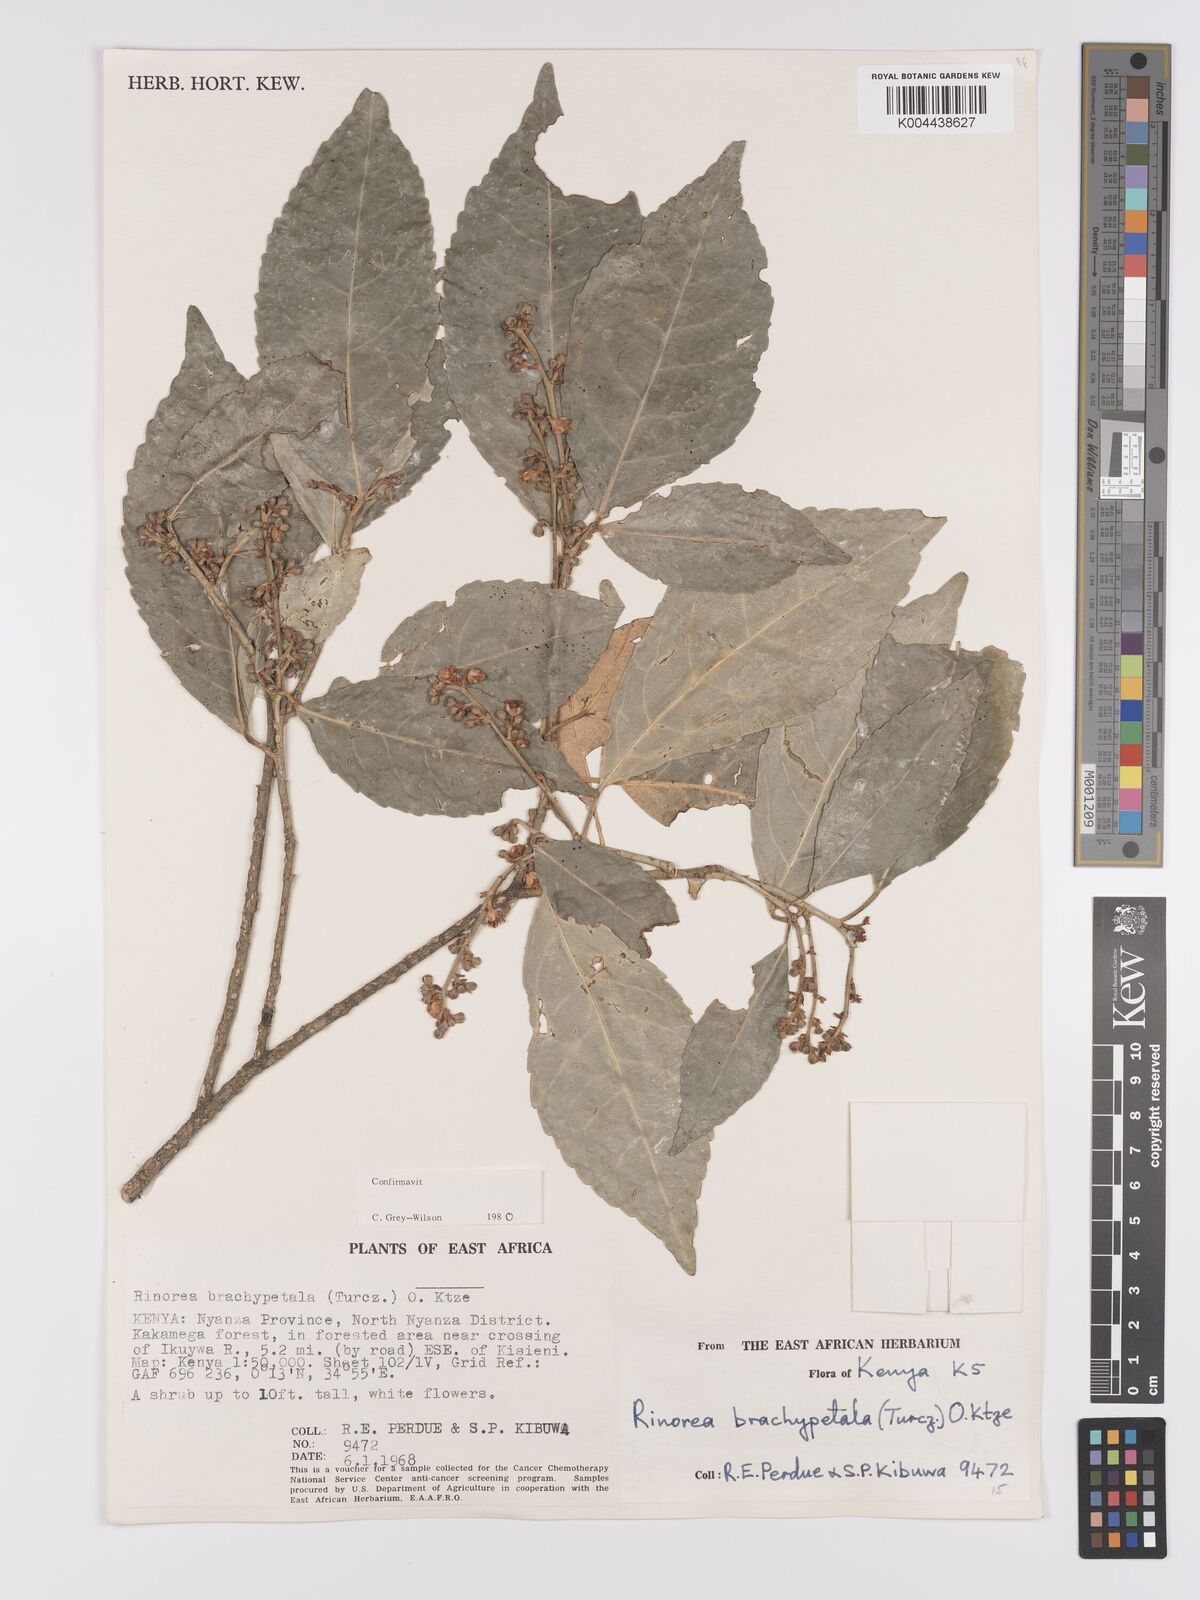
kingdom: Plantae
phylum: Tracheophyta
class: Magnoliopsida
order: Malpighiales
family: Violaceae
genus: Rinorea
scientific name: Rinorea brachypetala
